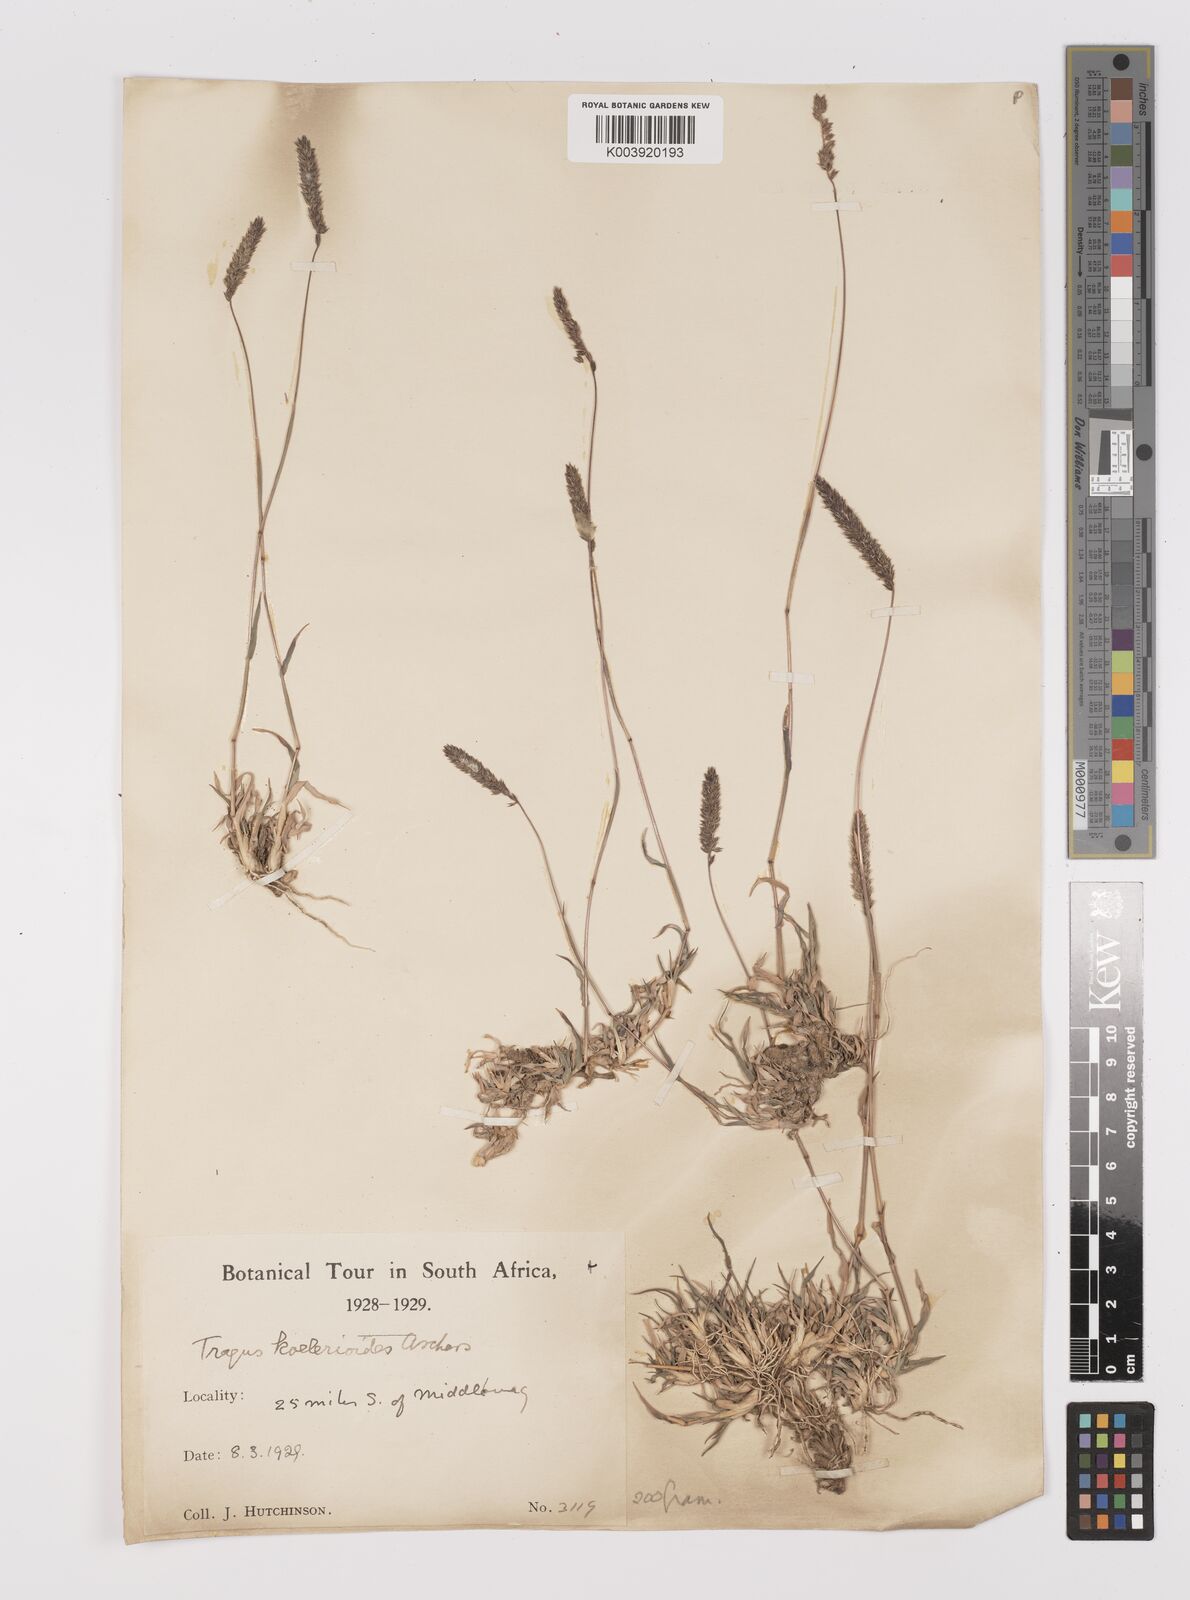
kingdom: Plantae
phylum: Tracheophyta
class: Liliopsida
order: Poales
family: Poaceae
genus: Tragus
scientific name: Tragus koelerioides
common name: Creeping carrot-seed grass
